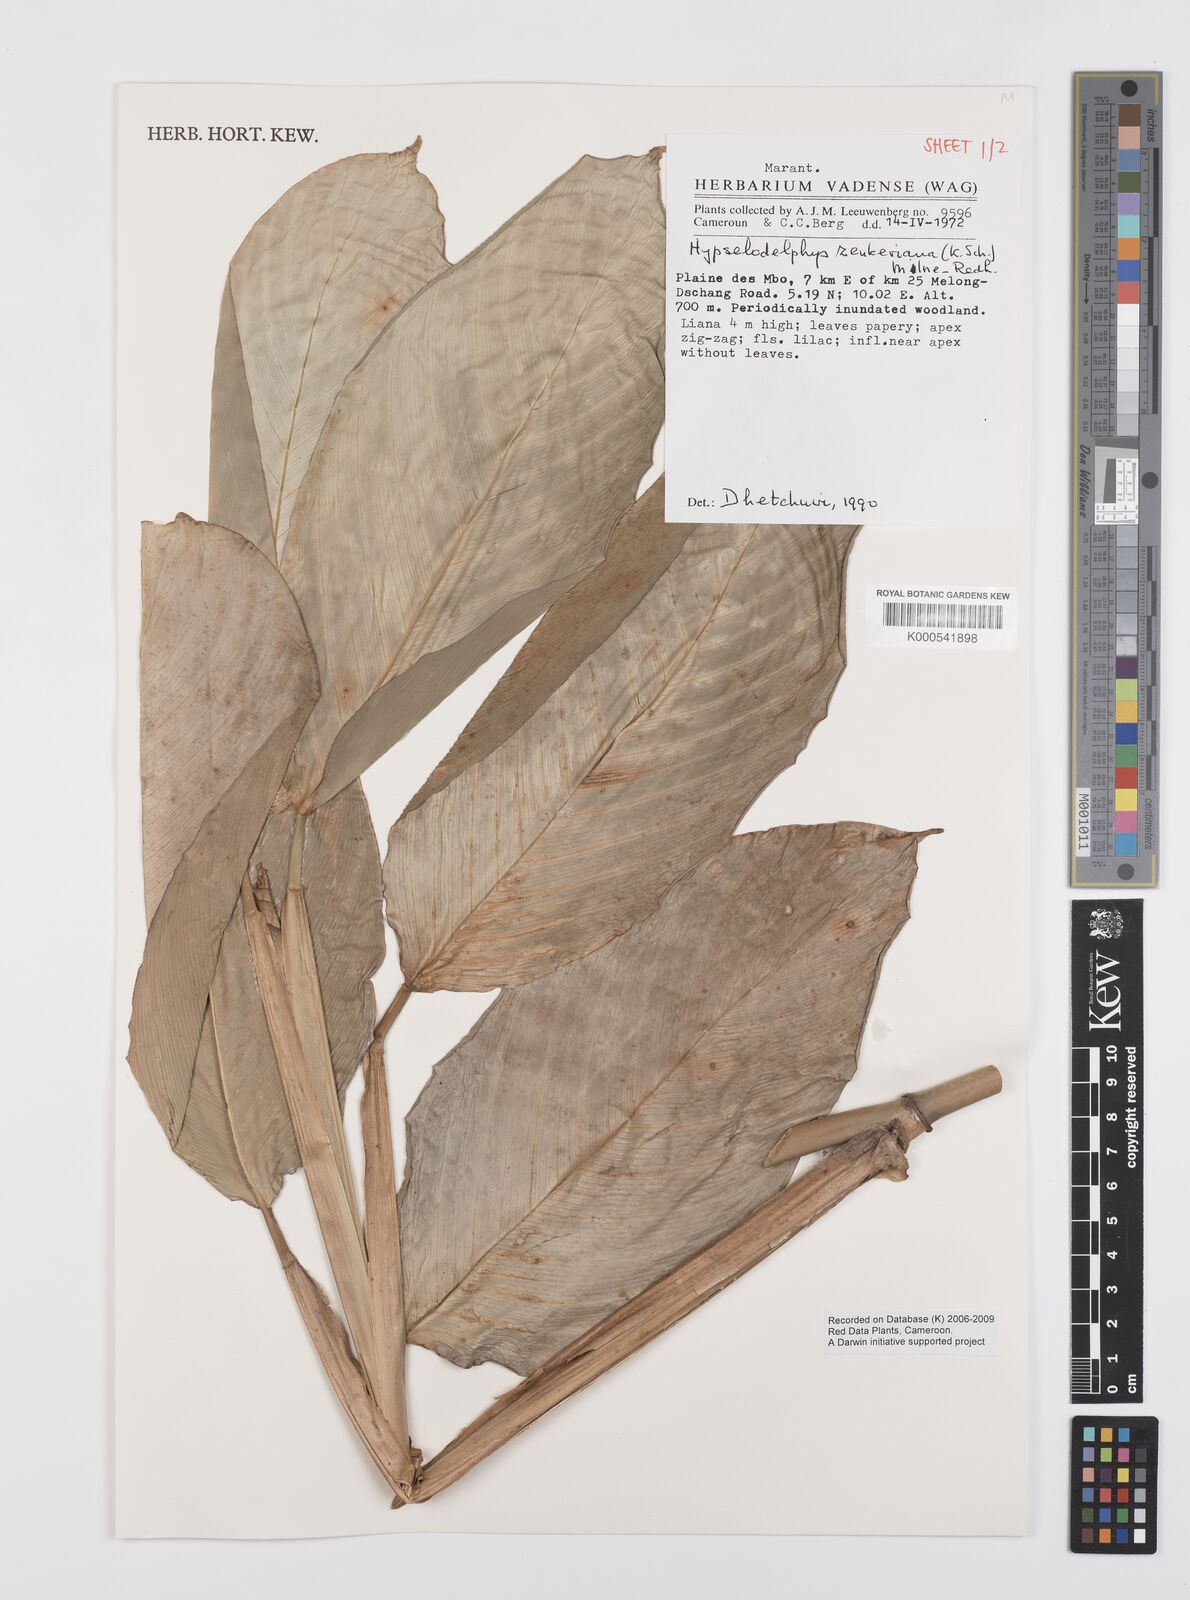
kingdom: Plantae
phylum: Tracheophyta
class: Liliopsida
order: Zingiberales
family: Marantaceae
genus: Hypselodelphys
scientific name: Hypselodelphys zenkeriana
